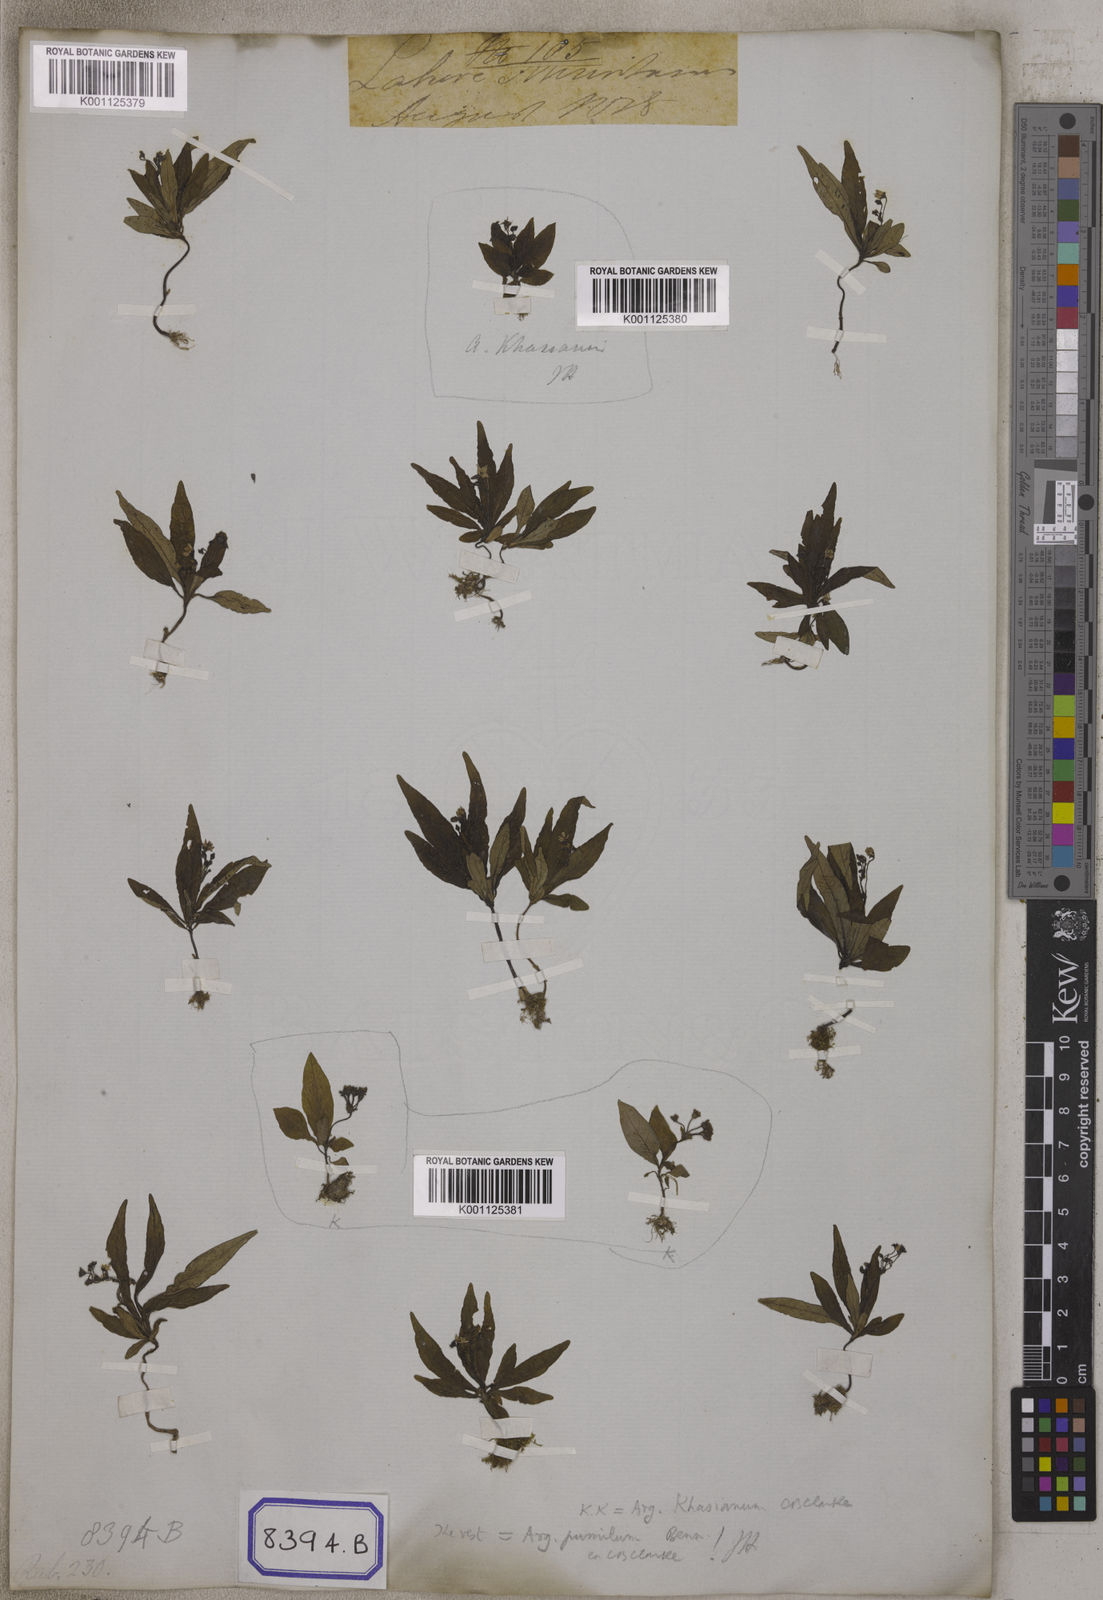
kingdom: Plantae
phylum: Tracheophyta
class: Magnoliopsida
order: Gentianales
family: Rubiaceae
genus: Argostemma
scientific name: Argostemma verticillatum
